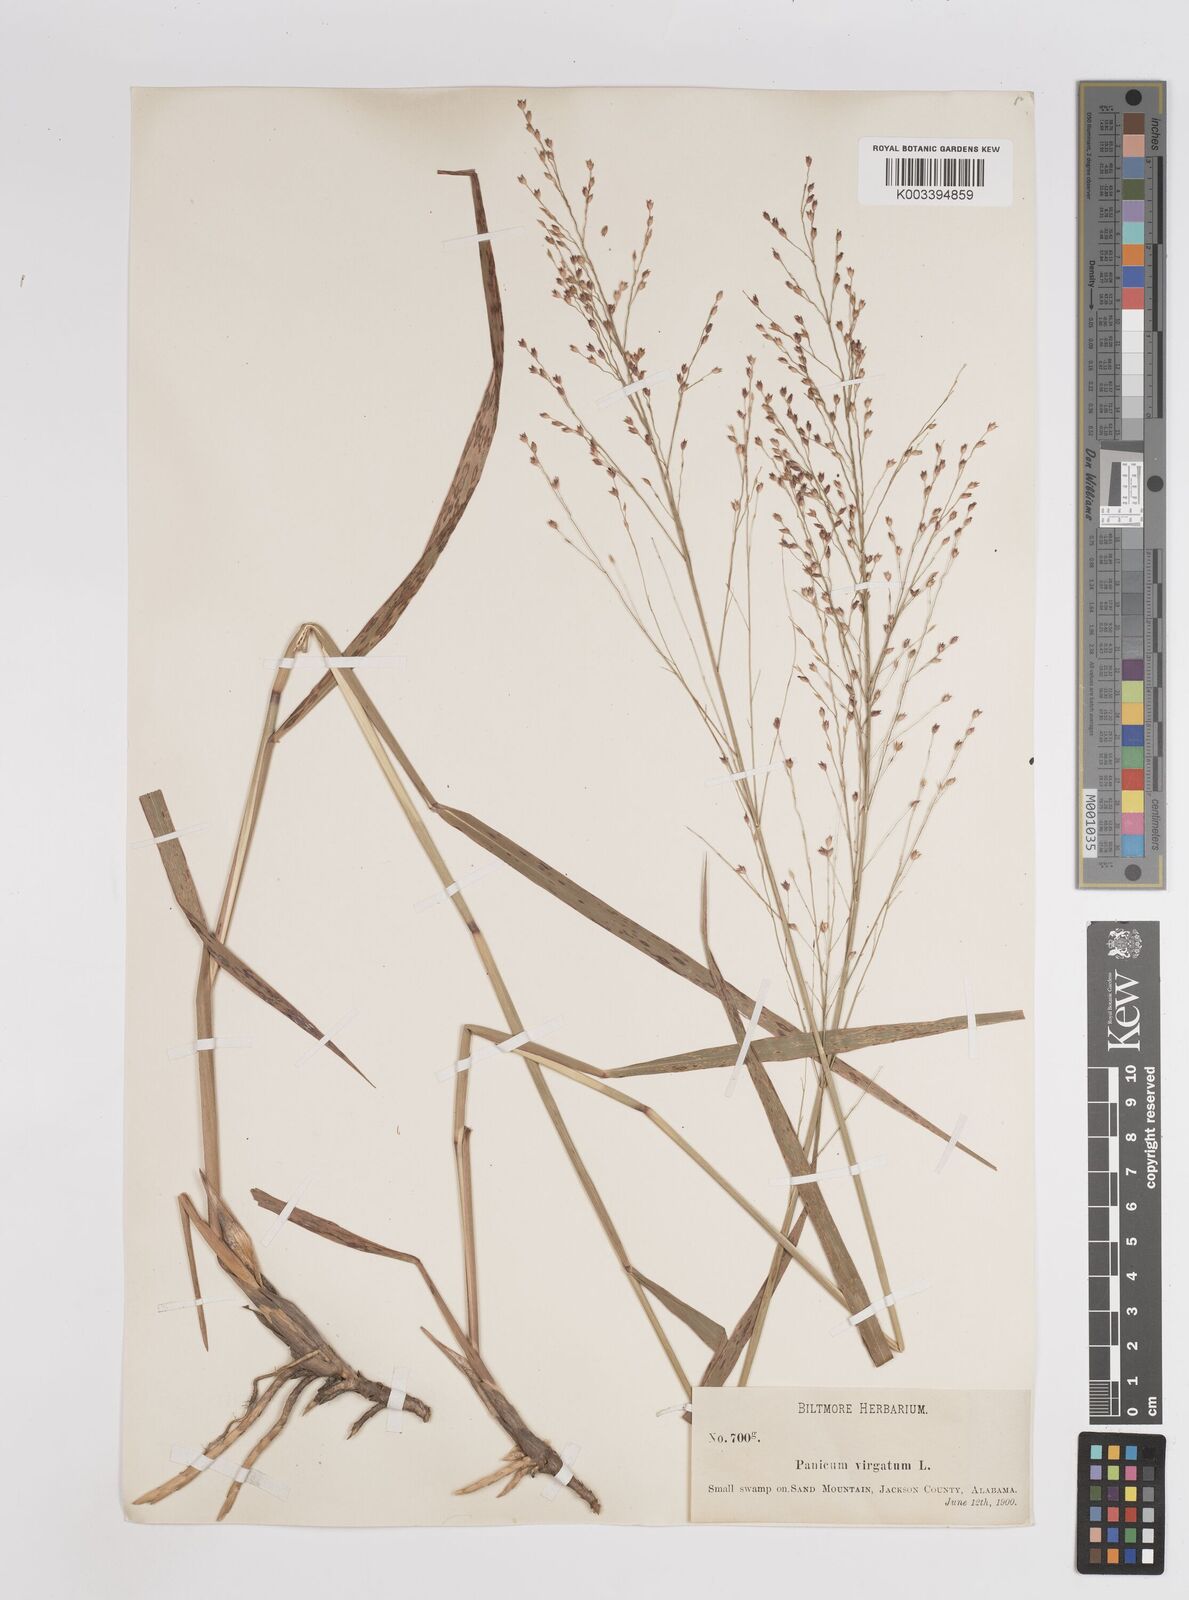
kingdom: Plantae
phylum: Tracheophyta
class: Liliopsida
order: Poales
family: Poaceae
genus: Panicum
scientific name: Panicum virgatum
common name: Switchgrass
